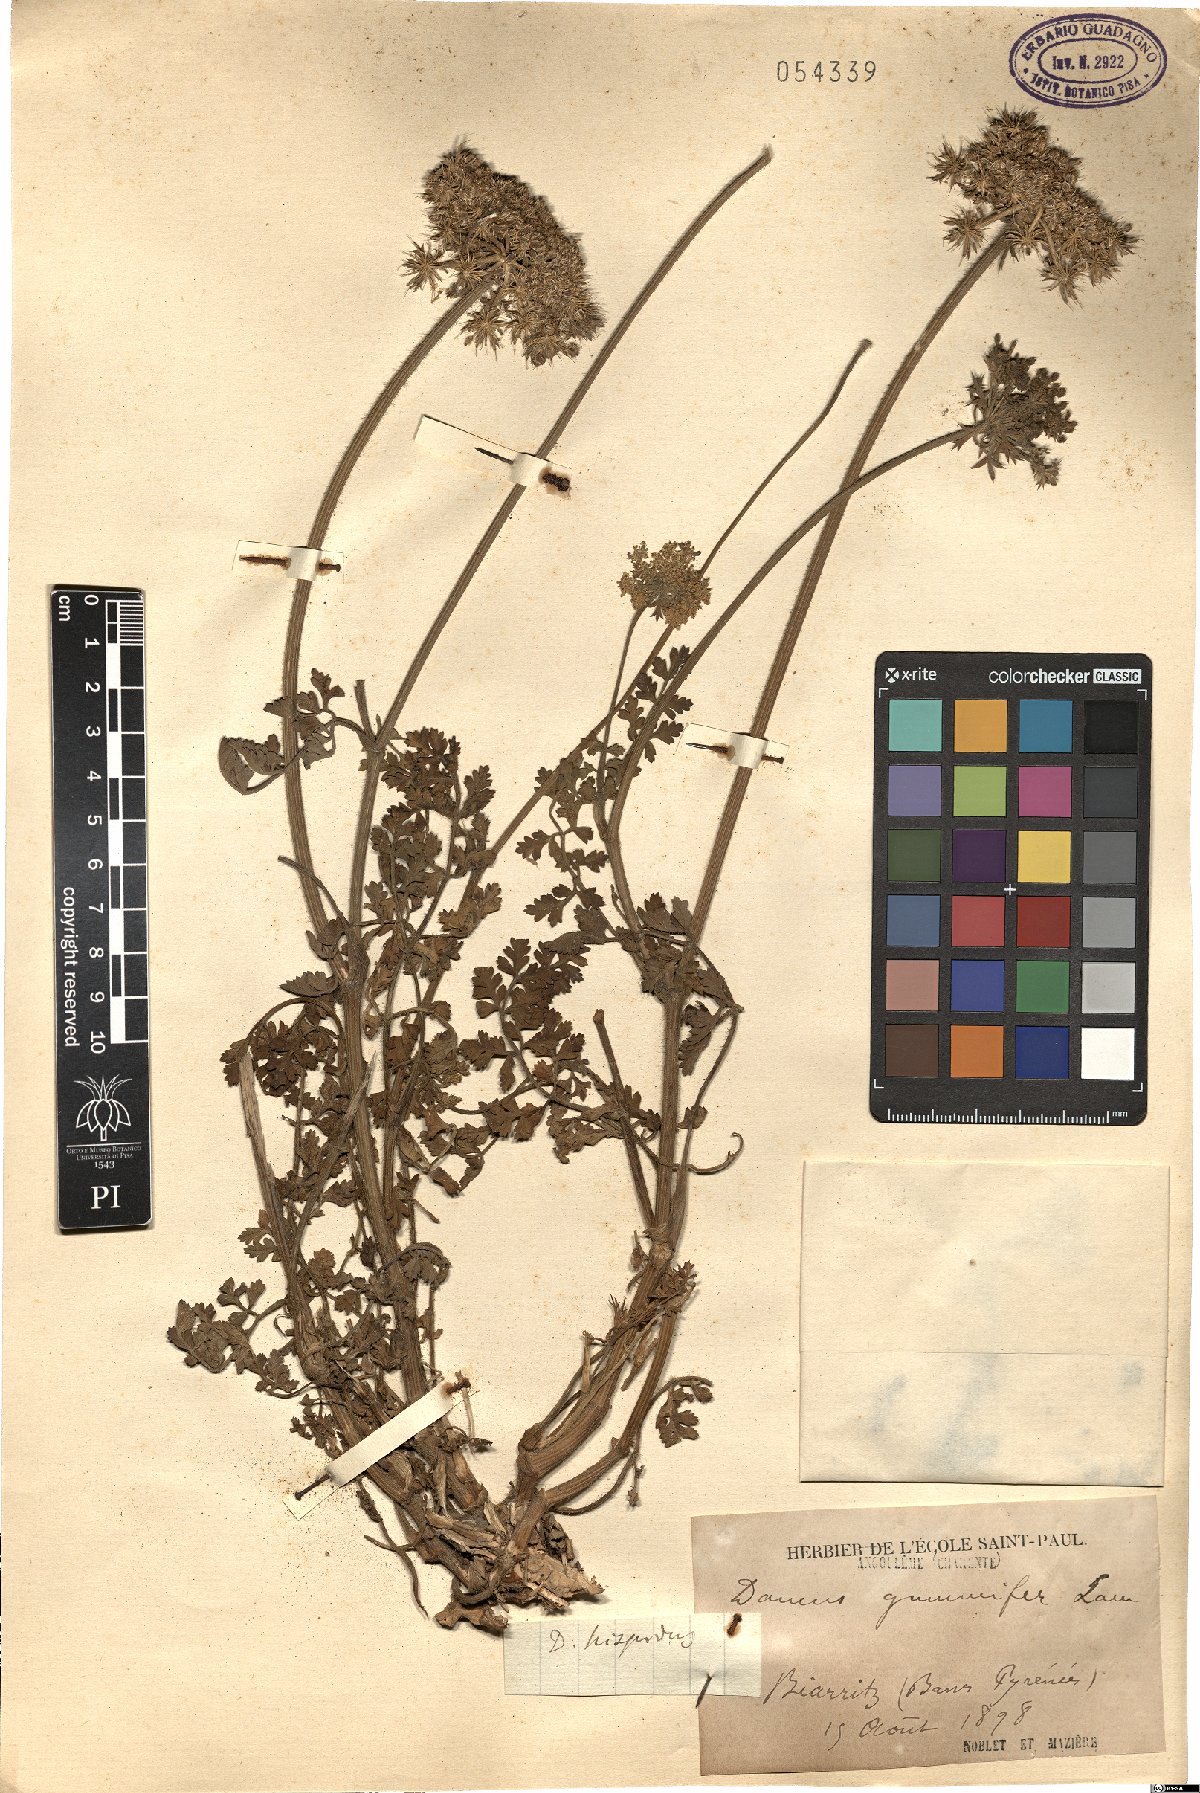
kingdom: Plantae
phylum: Tracheophyta
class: Magnoliopsida
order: Apiales
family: Apiaceae
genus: Daucus
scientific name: Daucus carota
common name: Wild carrot
